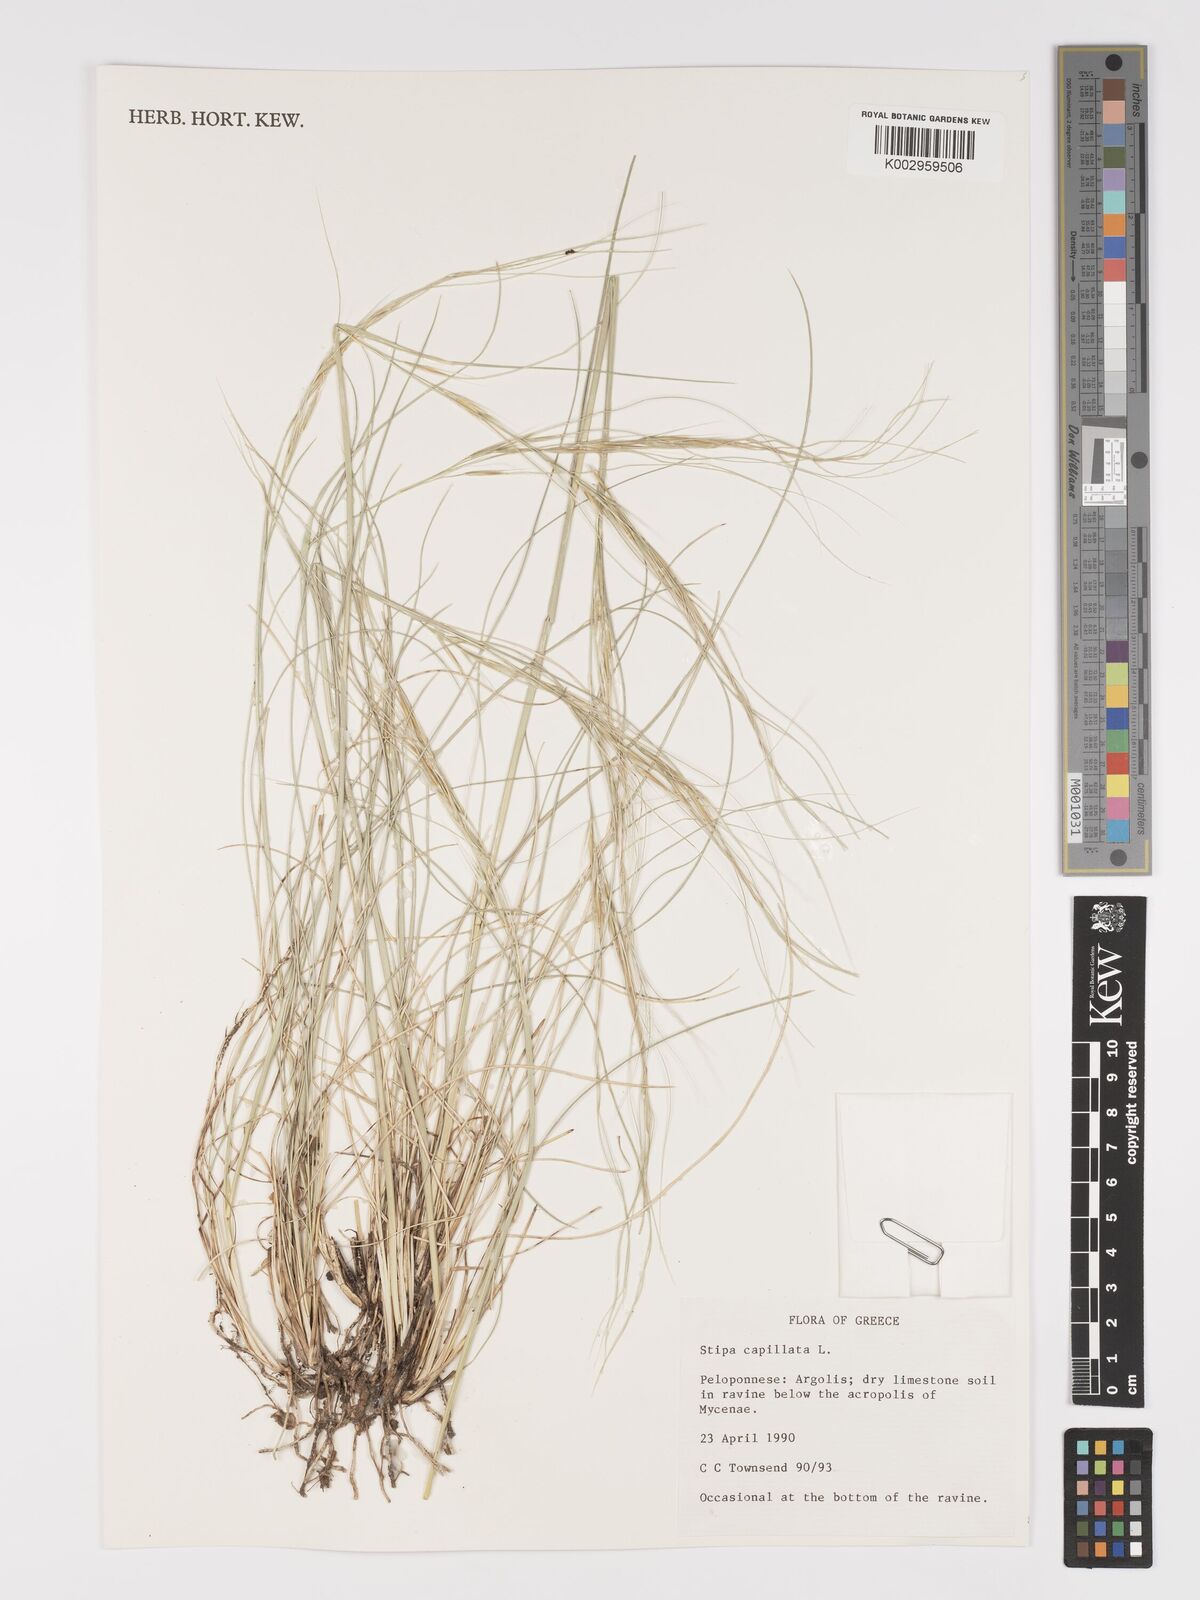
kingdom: Plantae
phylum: Tracheophyta
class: Liliopsida
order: Poales
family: Poaceae
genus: Stipa
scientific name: Stipa capillata
